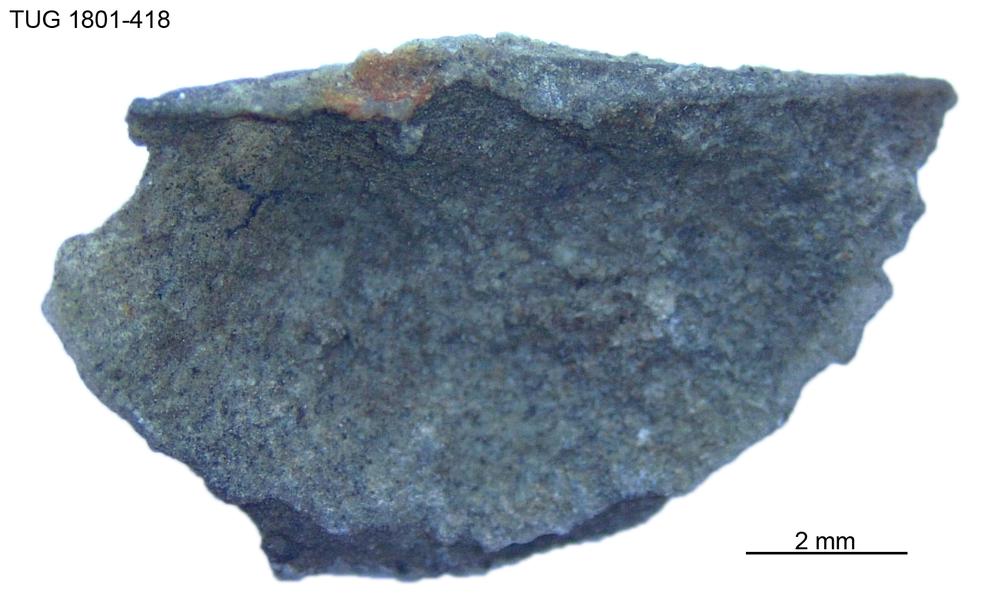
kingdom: Animalia
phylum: Brachiopoda
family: Oldhaminidae
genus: Eoplectodonta
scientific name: Eoplectodonta
